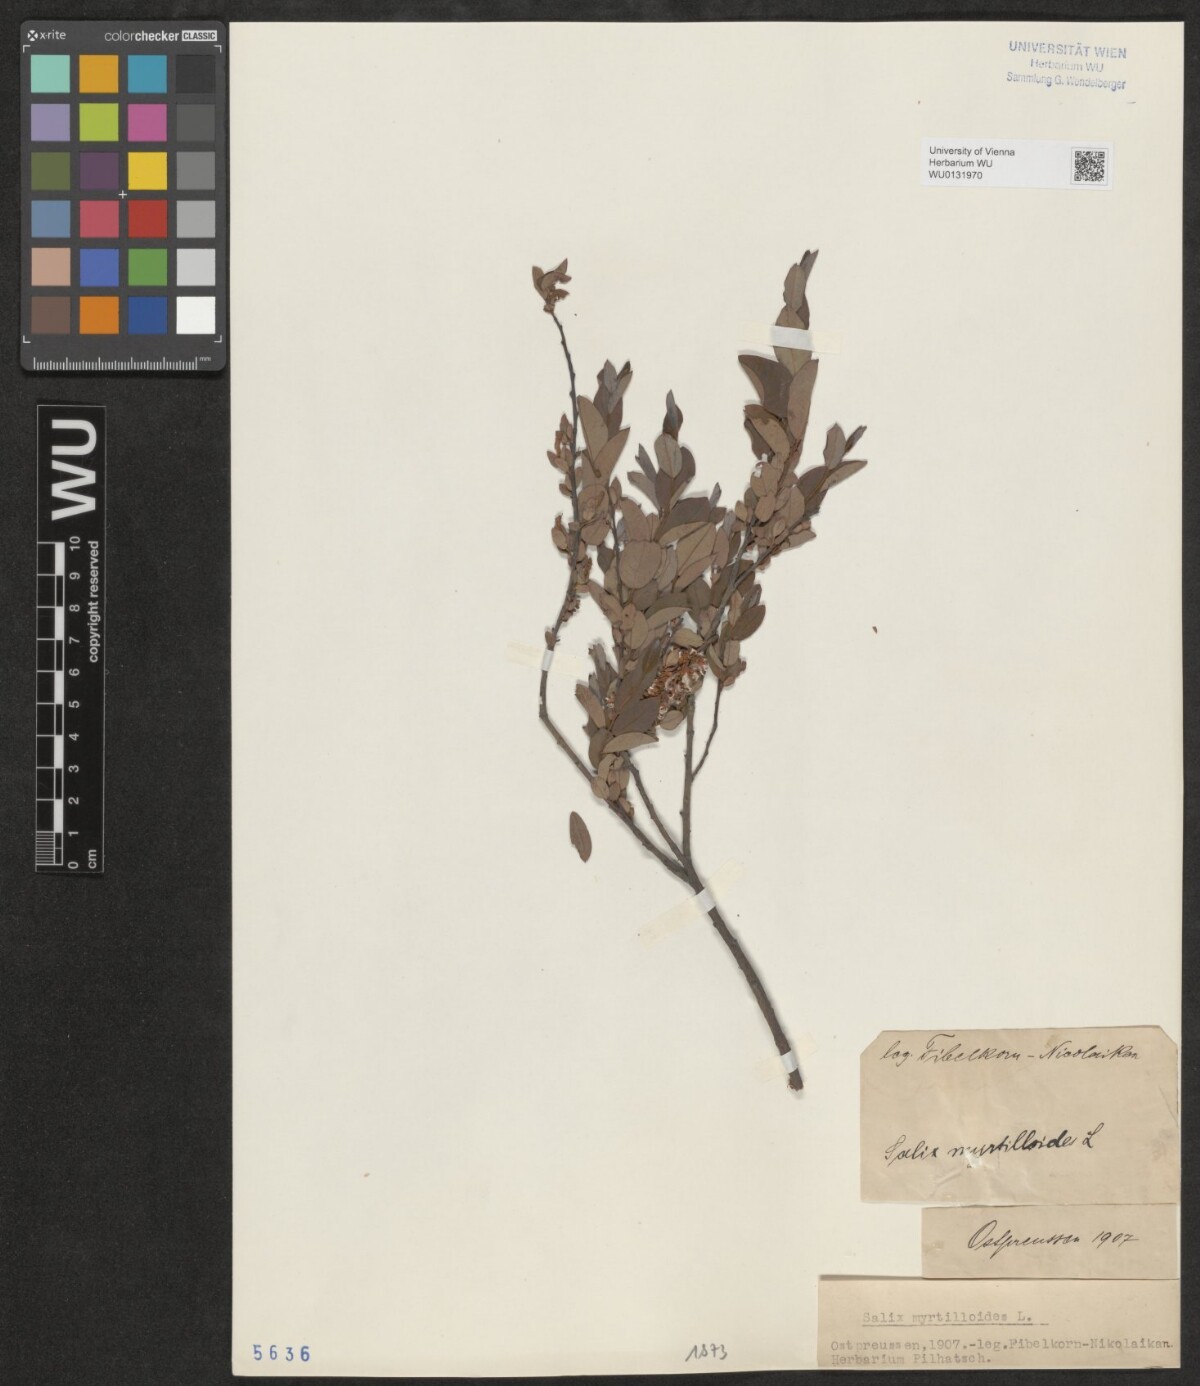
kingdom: Plantae
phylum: Tracheophyta
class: Magnoliopsida
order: Malpighiales
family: Salicaceae
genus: Salix
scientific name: Salix myrtilloides
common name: Myrtle-leaved willow
